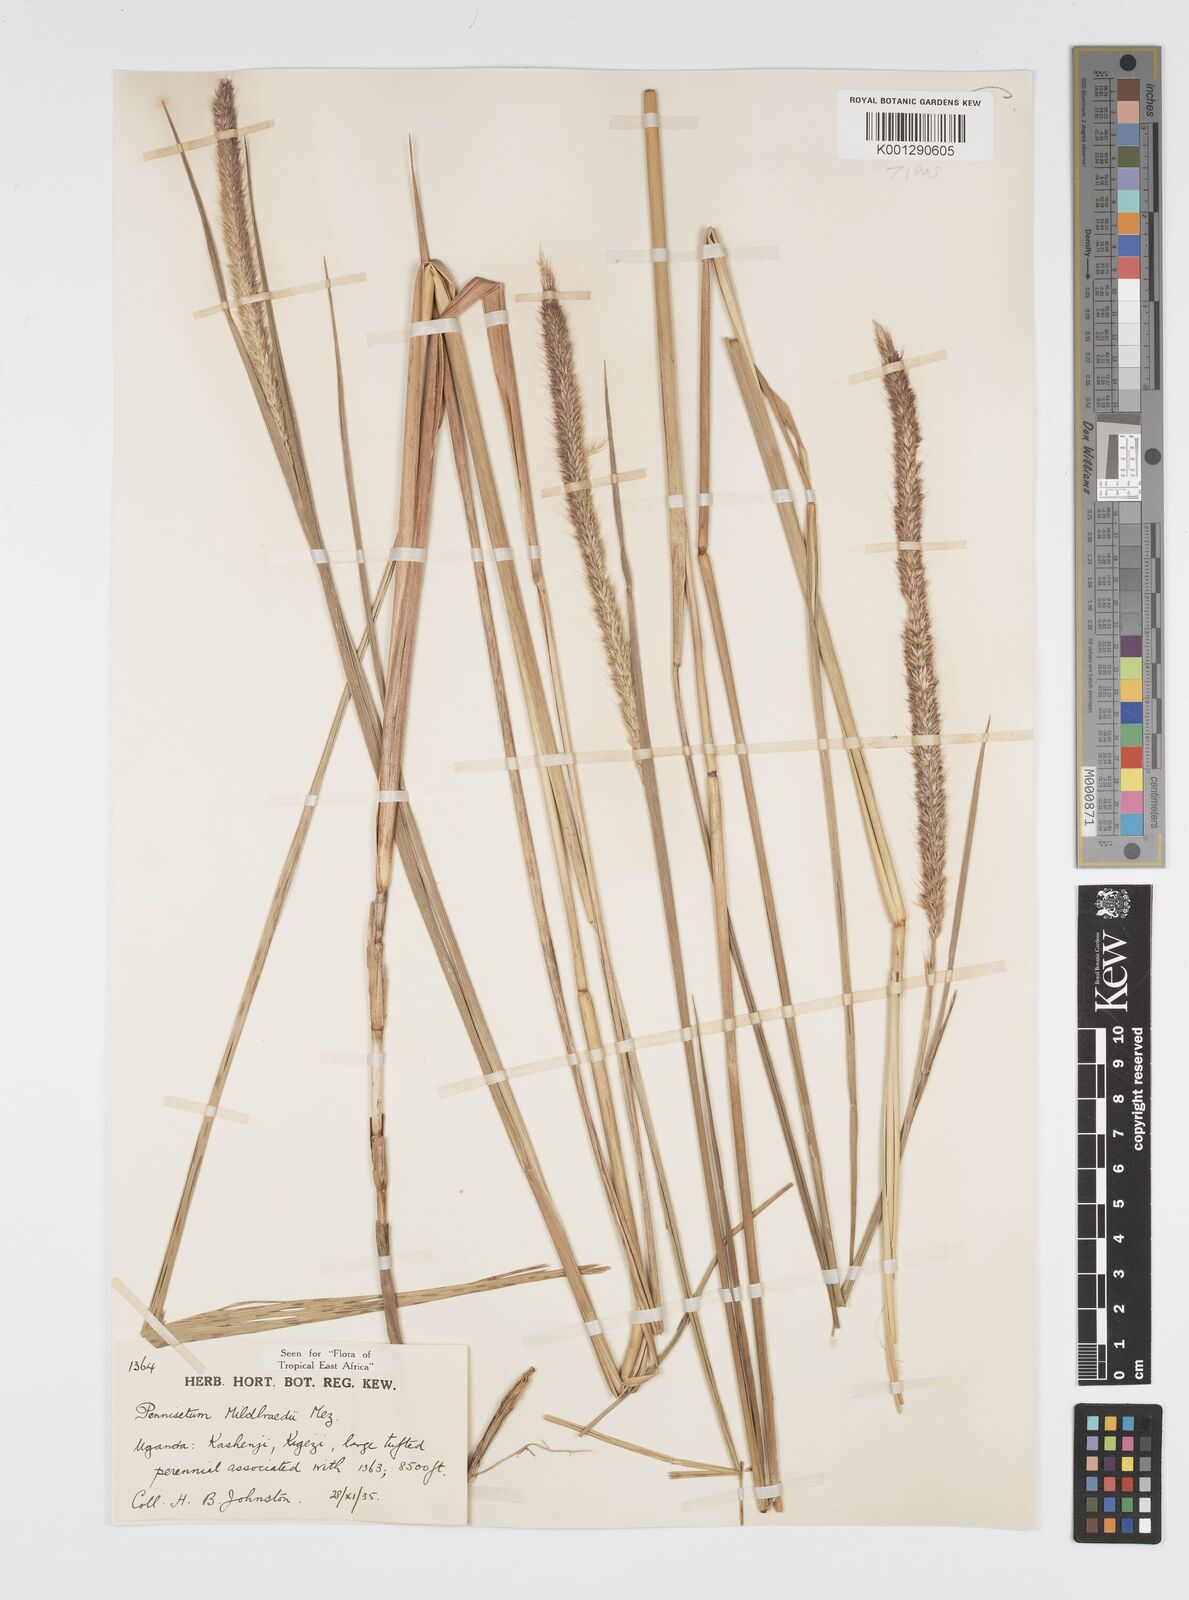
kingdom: Plantae
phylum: Tracheophyta
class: Liliopsida
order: Poales
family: Poaceae
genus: Cenchrus
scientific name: Cenchrus Pennisetum spec
